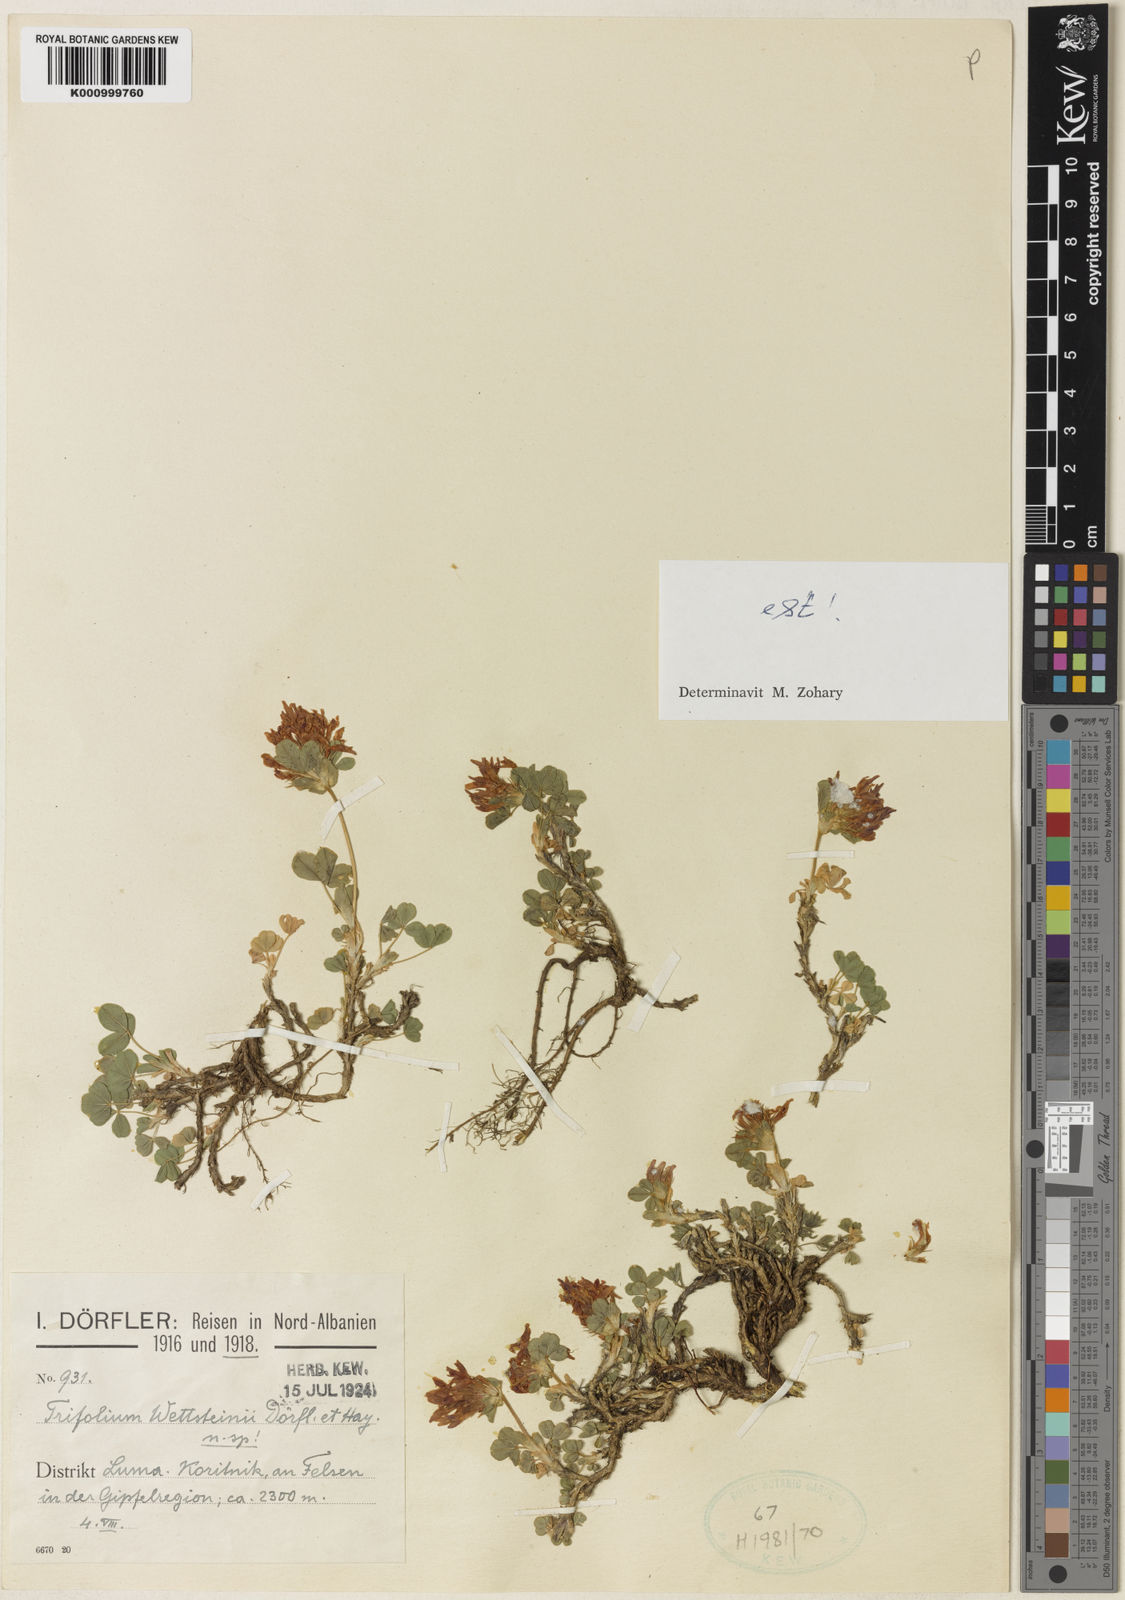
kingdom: Plantae
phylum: Tracheophyta
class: Magnoliopsida
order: Fabales
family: Fabaceae
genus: Trifolium
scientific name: Trifolium wettsteinii
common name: Wettstein's clover
